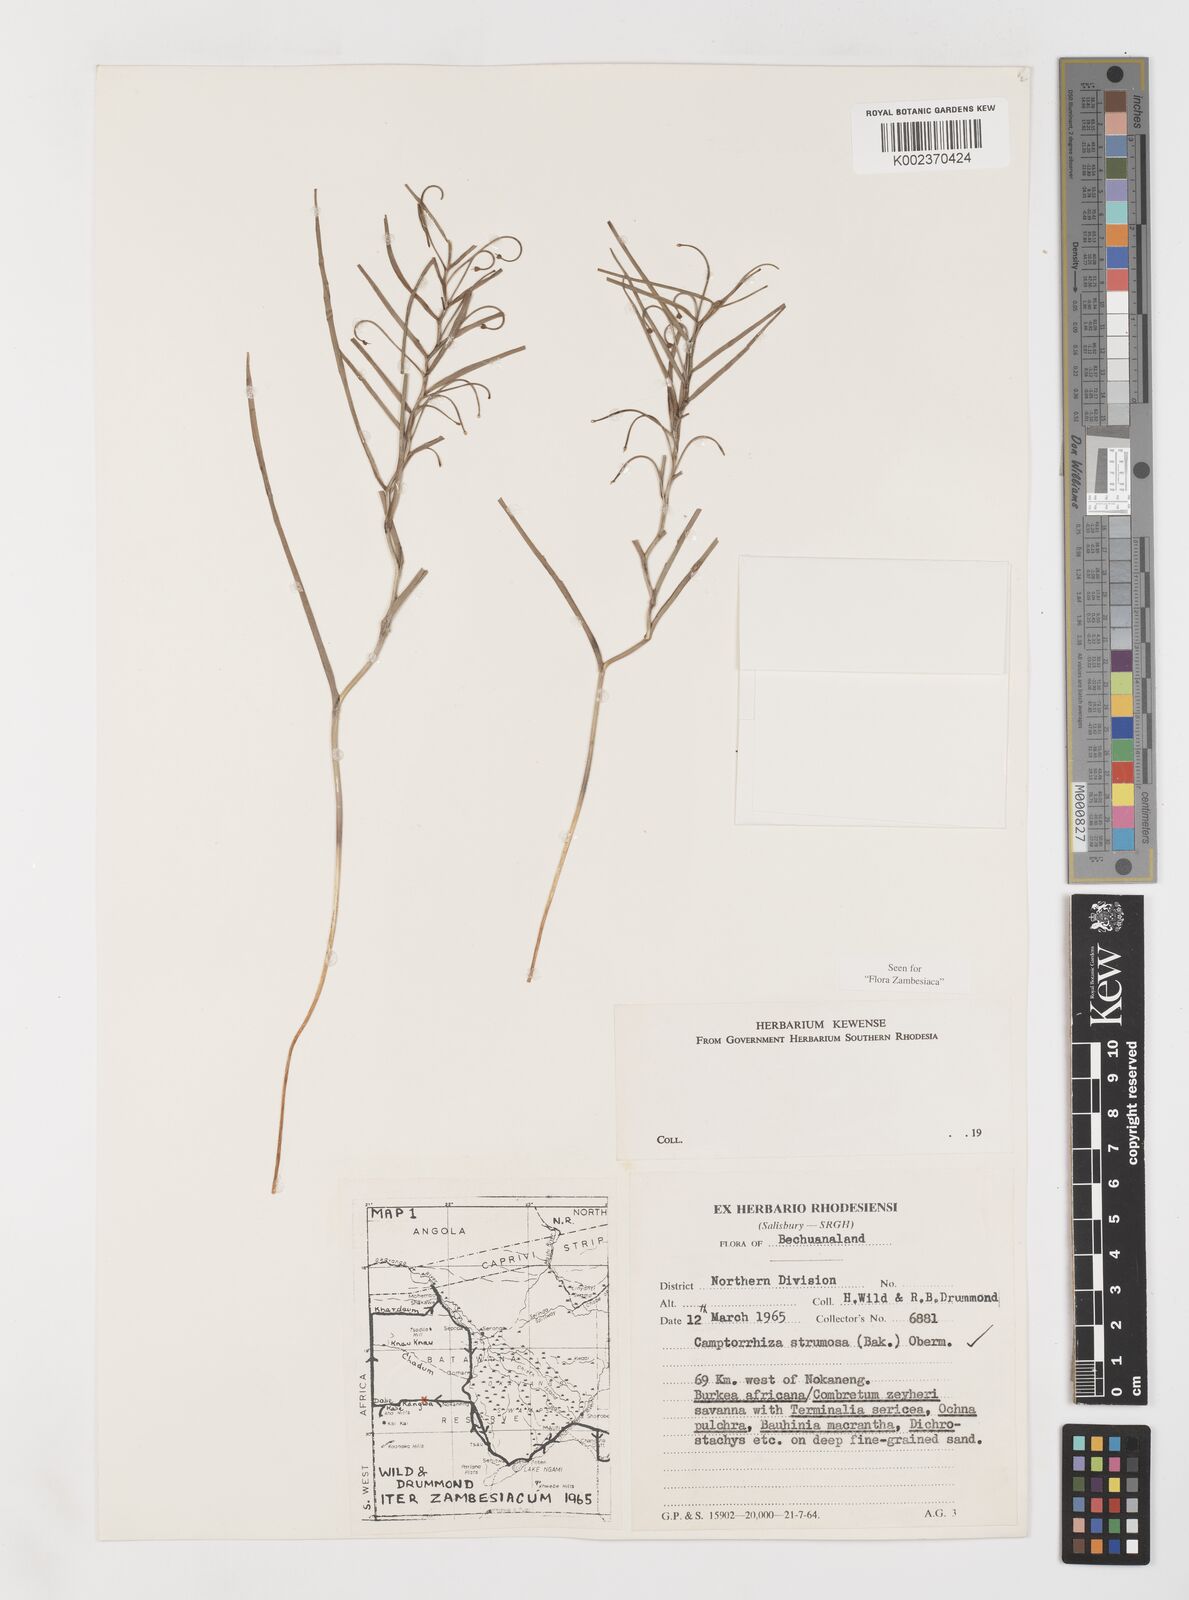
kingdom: Plantae
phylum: Tracheophyta
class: Liliopsida
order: Liliales
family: Colchicaceae
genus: Camptorrhiza
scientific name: Camptorrhiza strumosa
